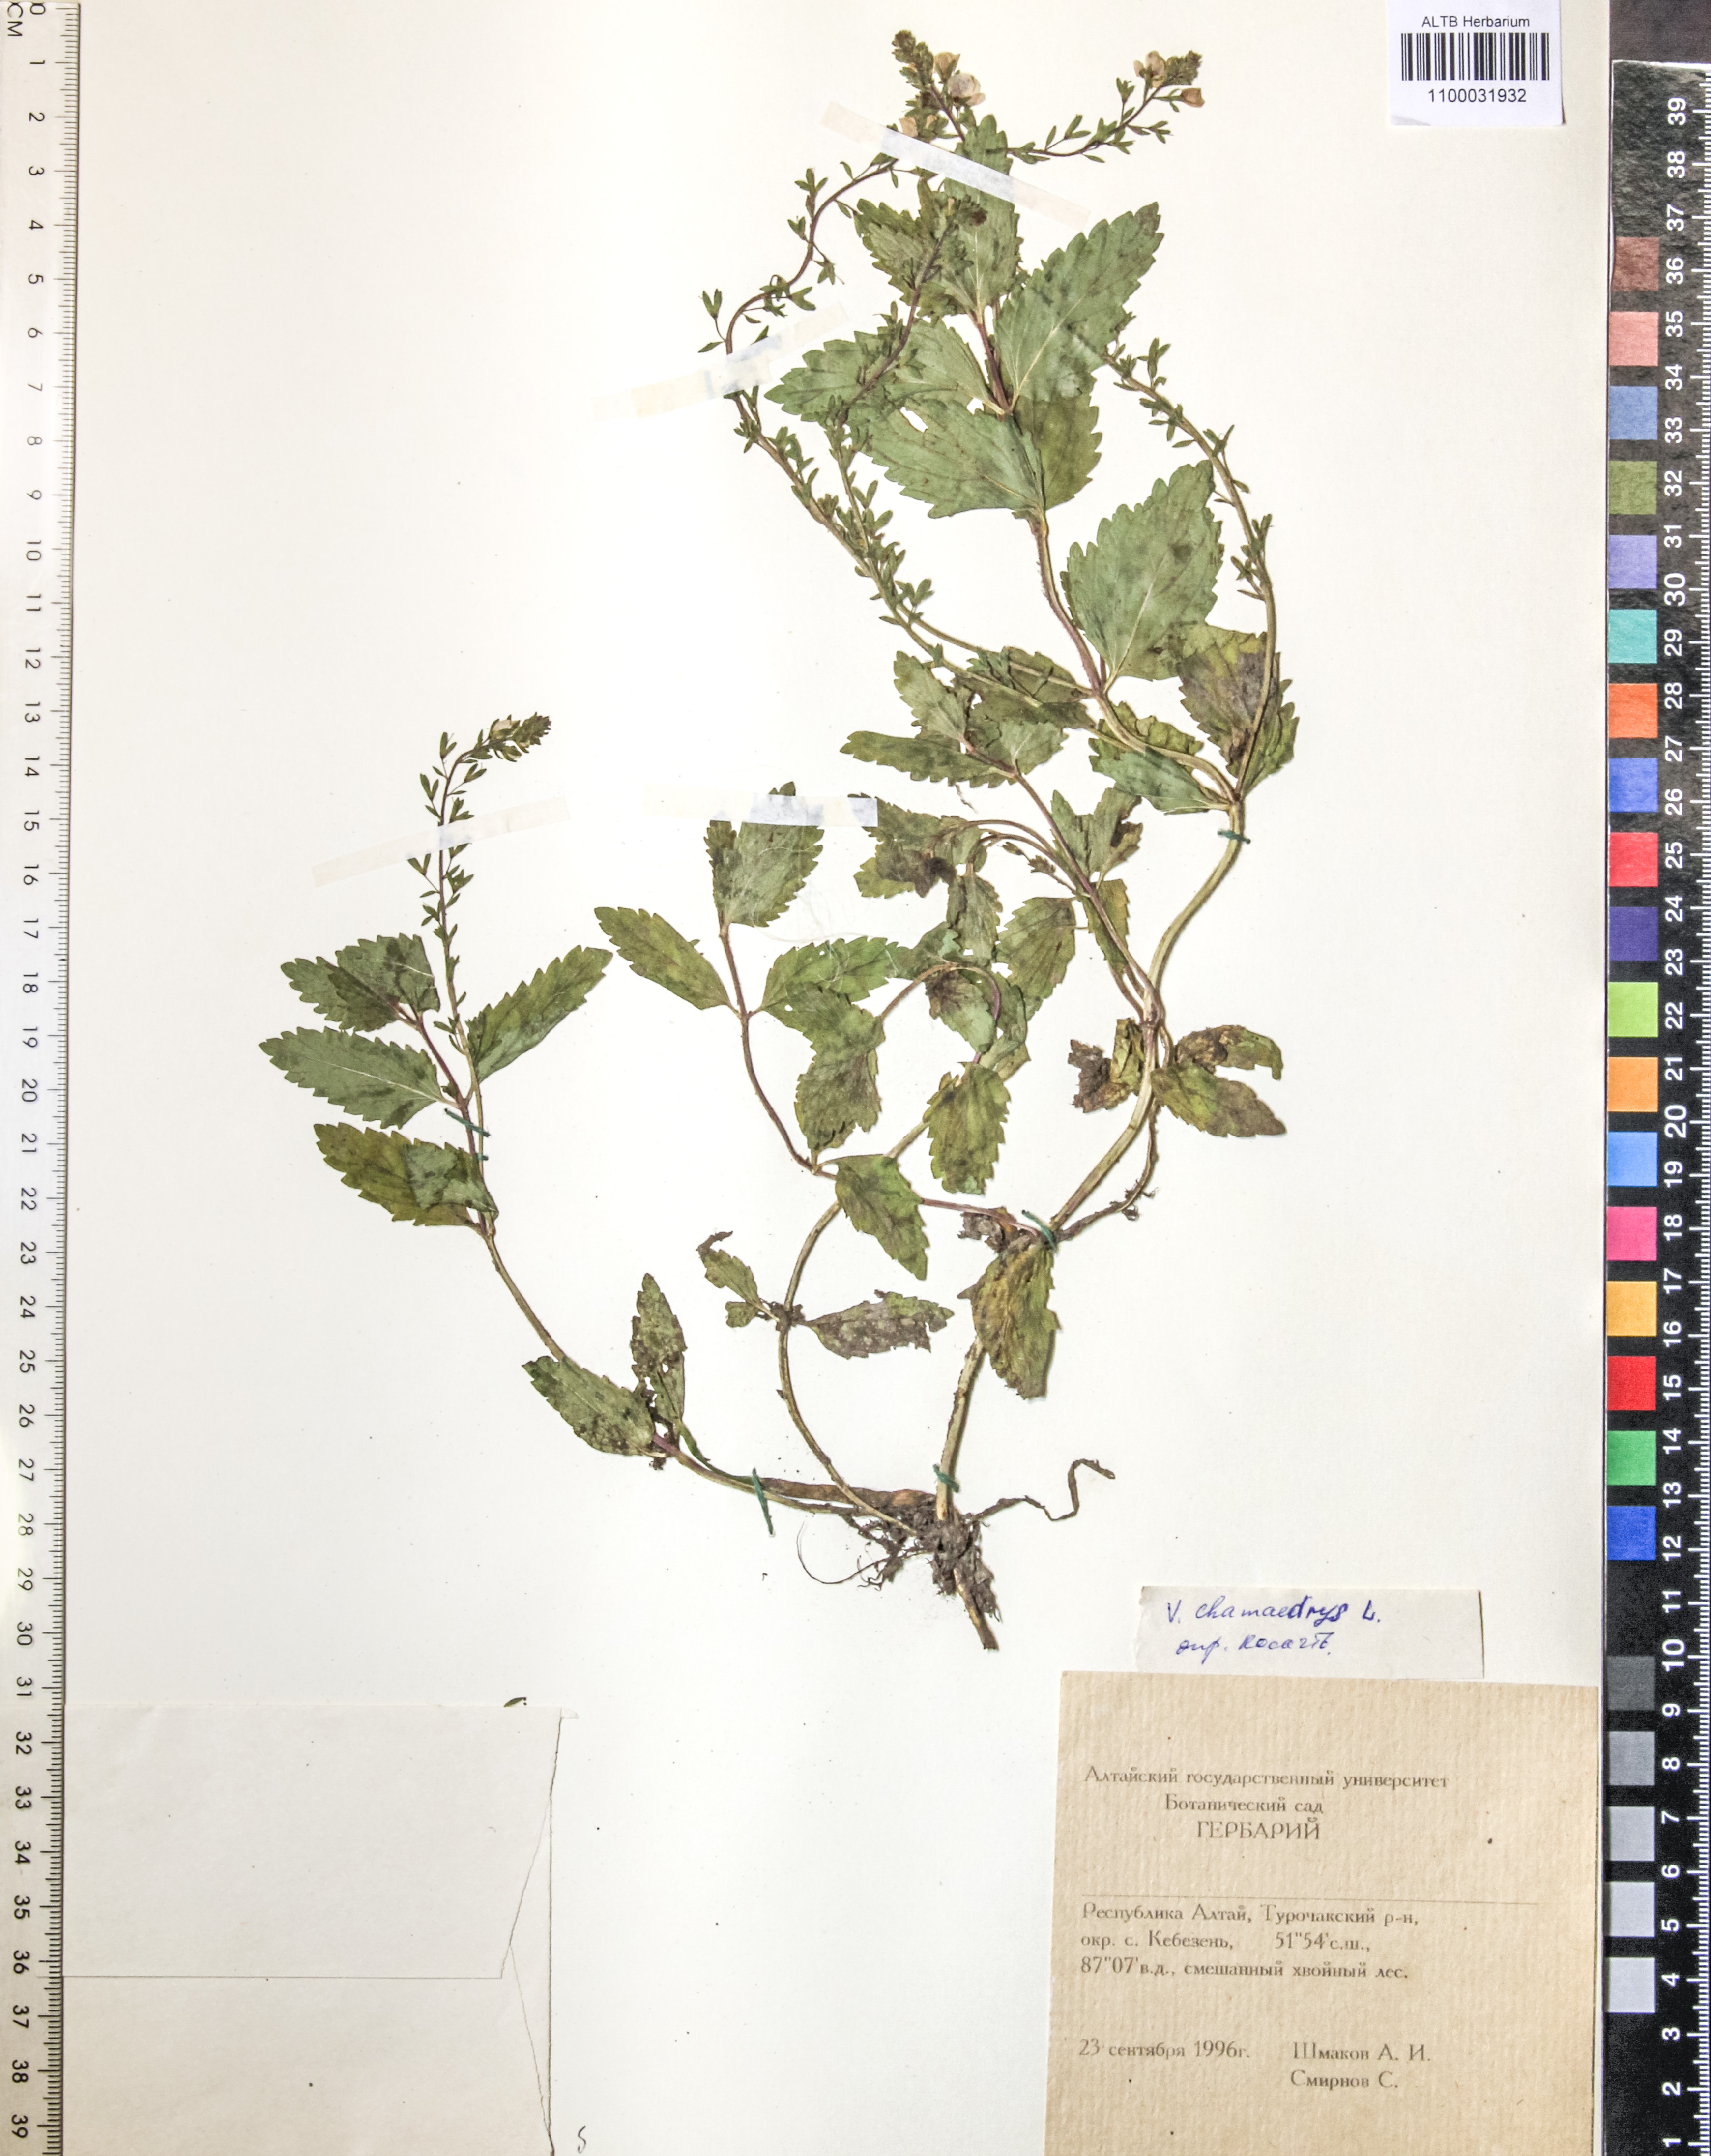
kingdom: Plantae
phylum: Tracheophyta
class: Magnoliopsida
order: Lamiales
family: Plantaginaceae
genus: Veronica
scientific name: Veronica chamaedrys
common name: Germander speedwell
